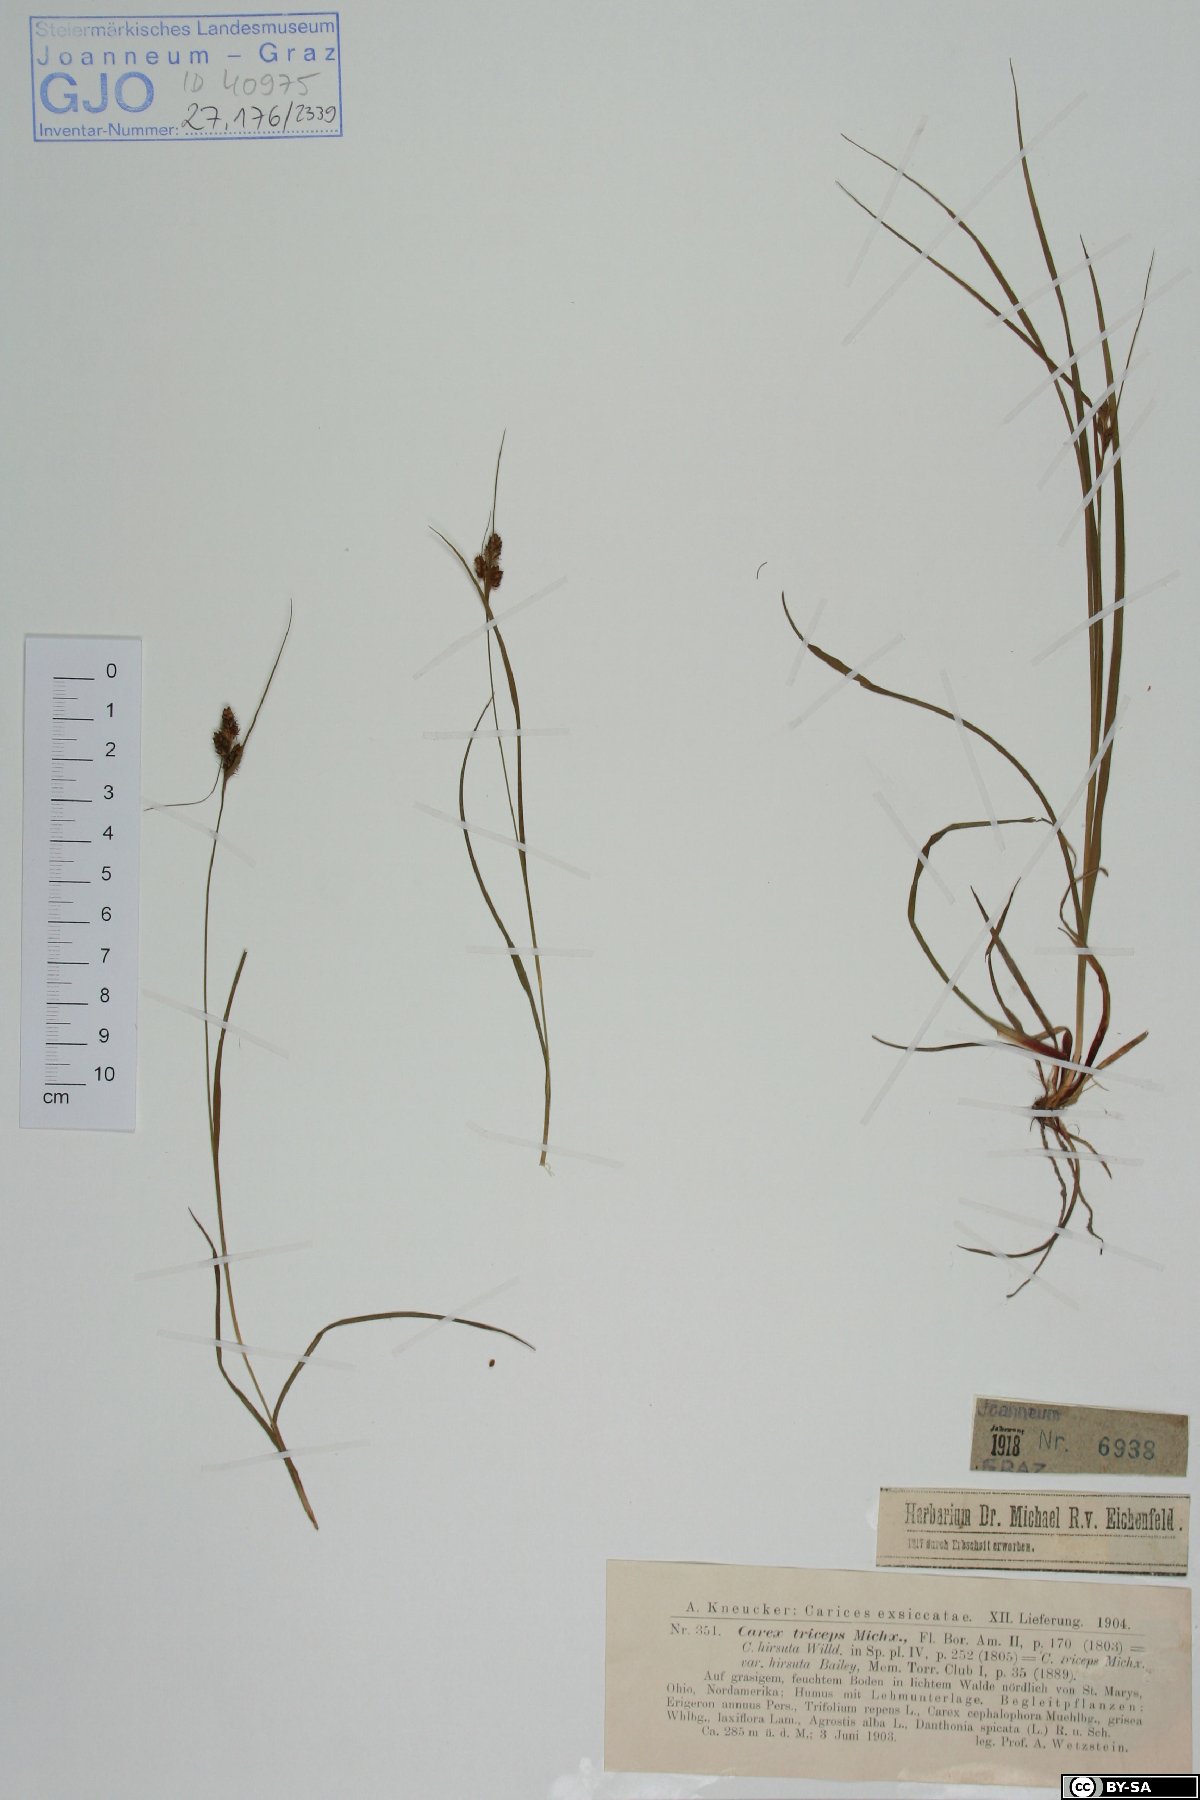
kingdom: Plantae
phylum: Tracheophyta
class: Liliopsida
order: Poales
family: Cyperaceae
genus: Carex
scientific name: Carex hirsutella
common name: Fuzzy wuzzy sedge
